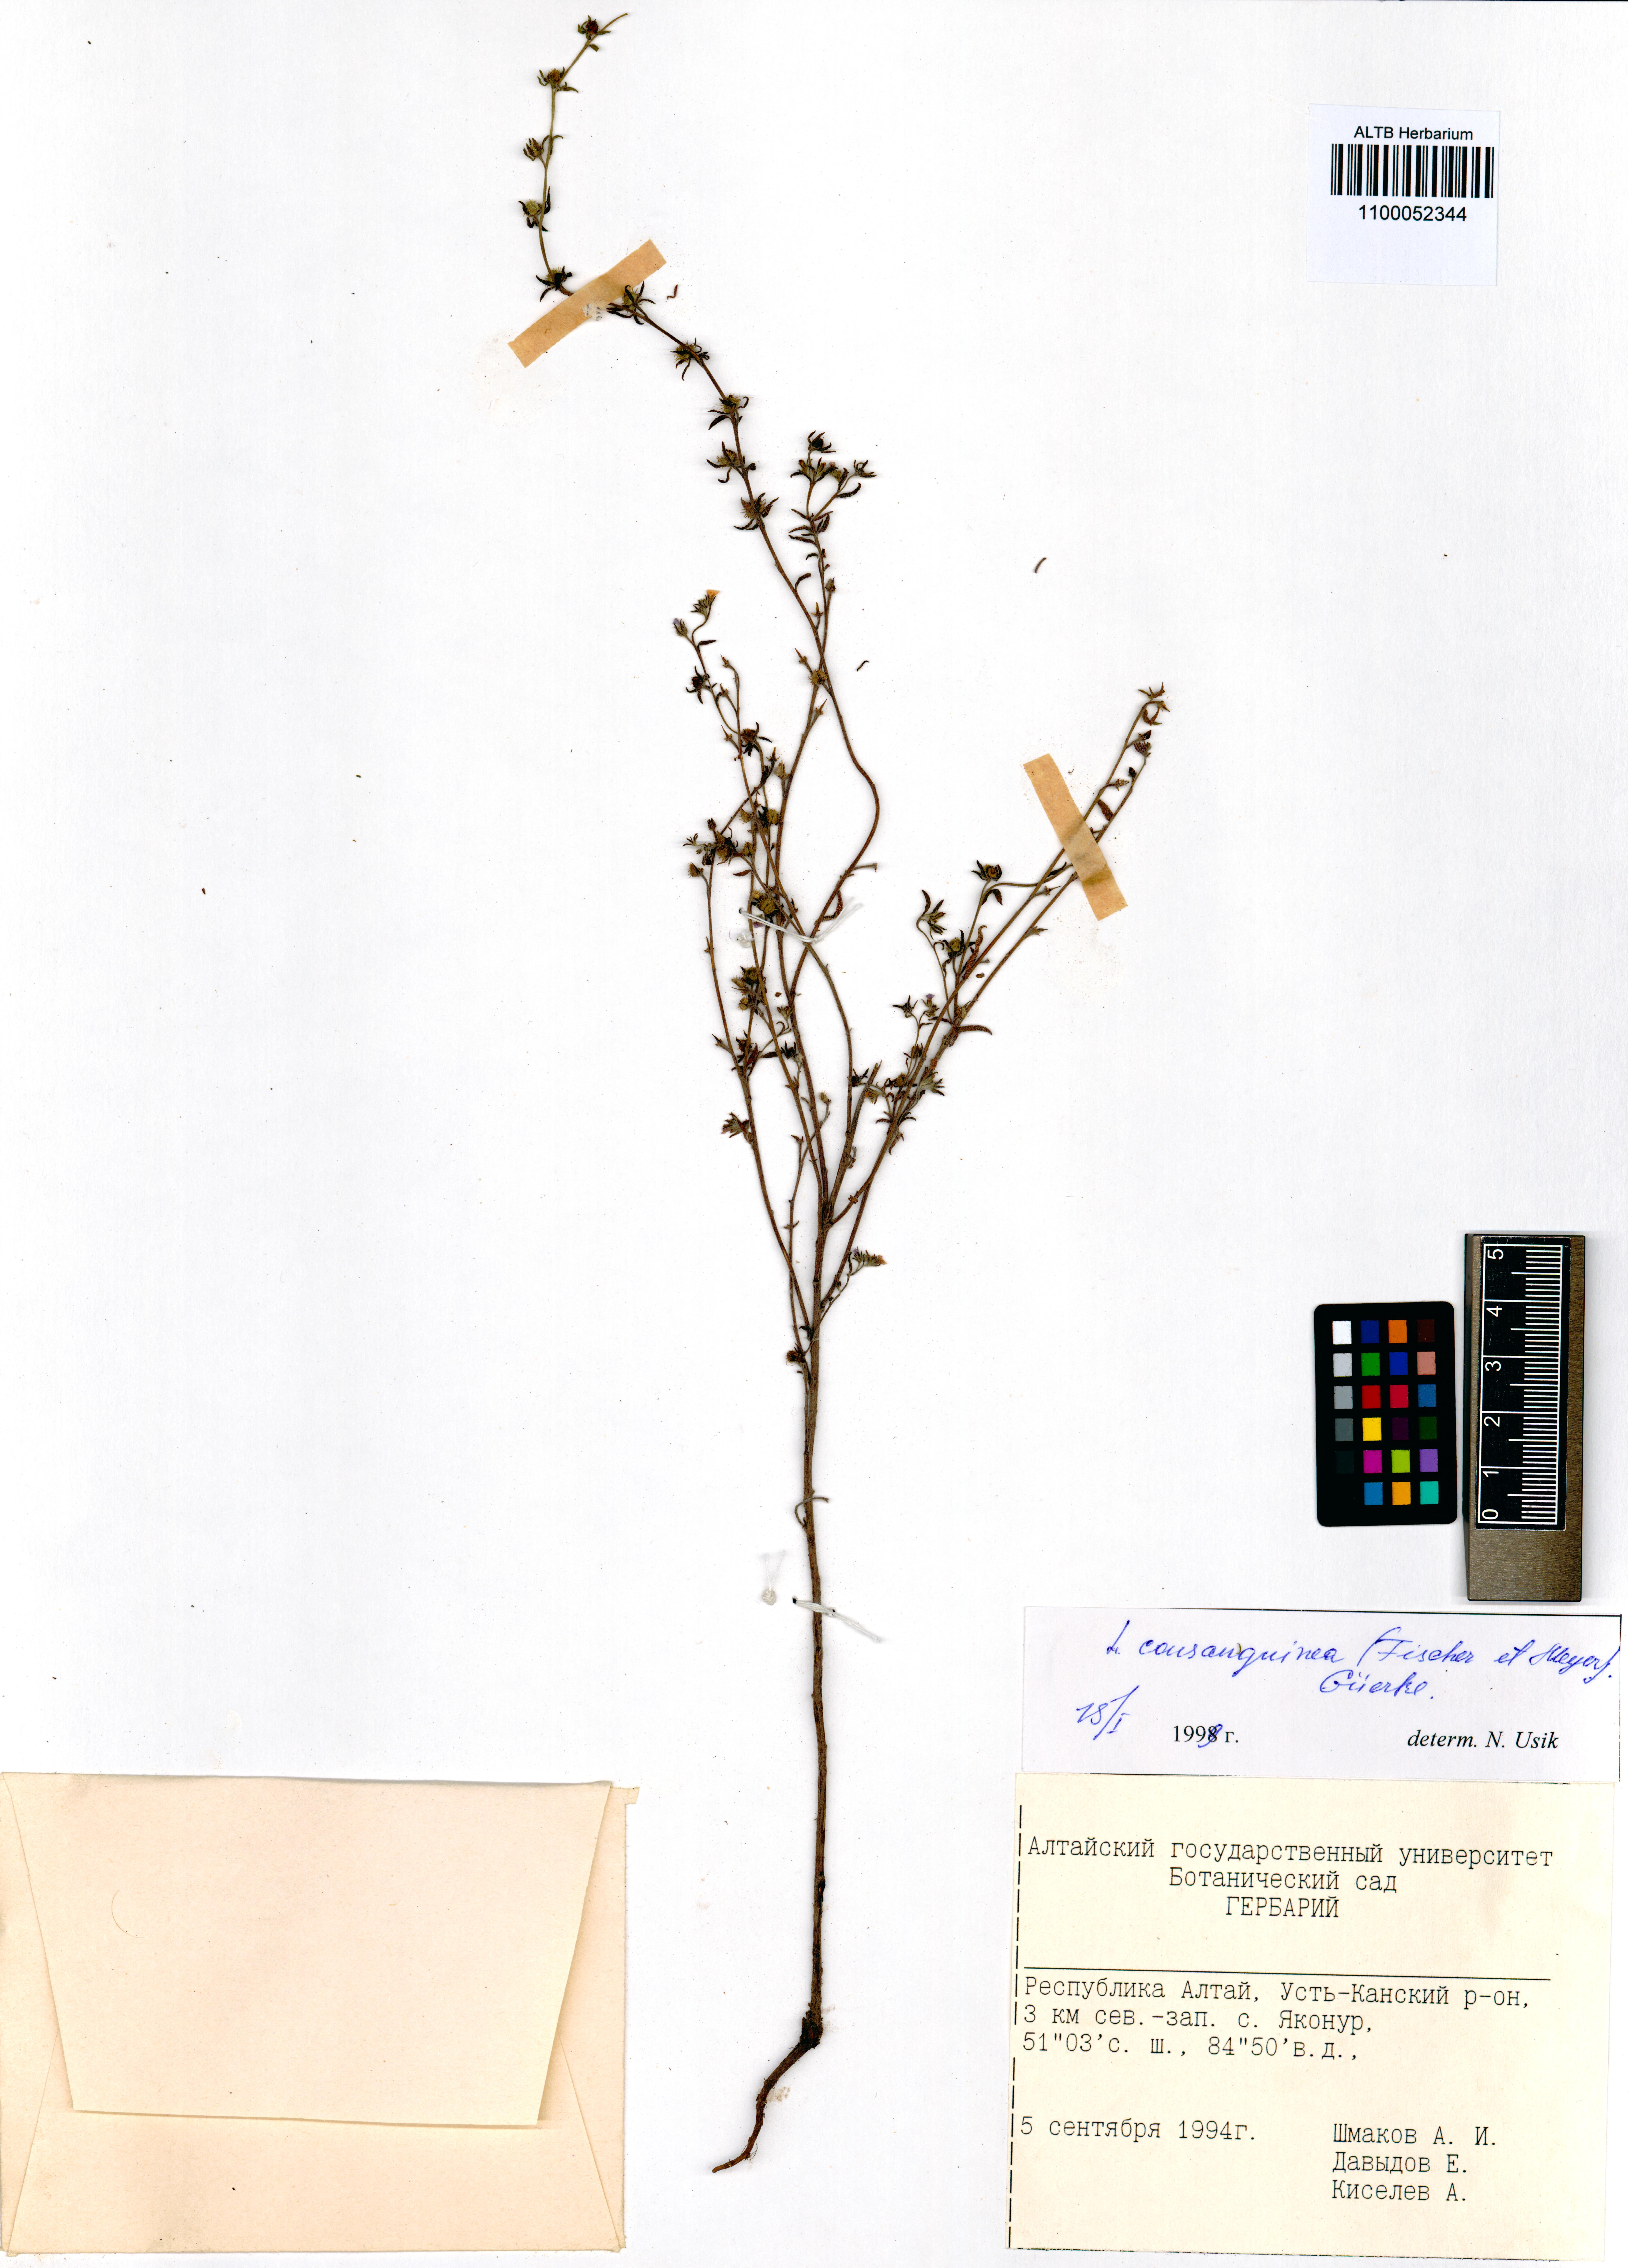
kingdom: Plantae
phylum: Tracheophyta
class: Magnoliopsida
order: Boraginales
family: Boraginaceae
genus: Lappula
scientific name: Lappula squarrosa
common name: European stickseed
